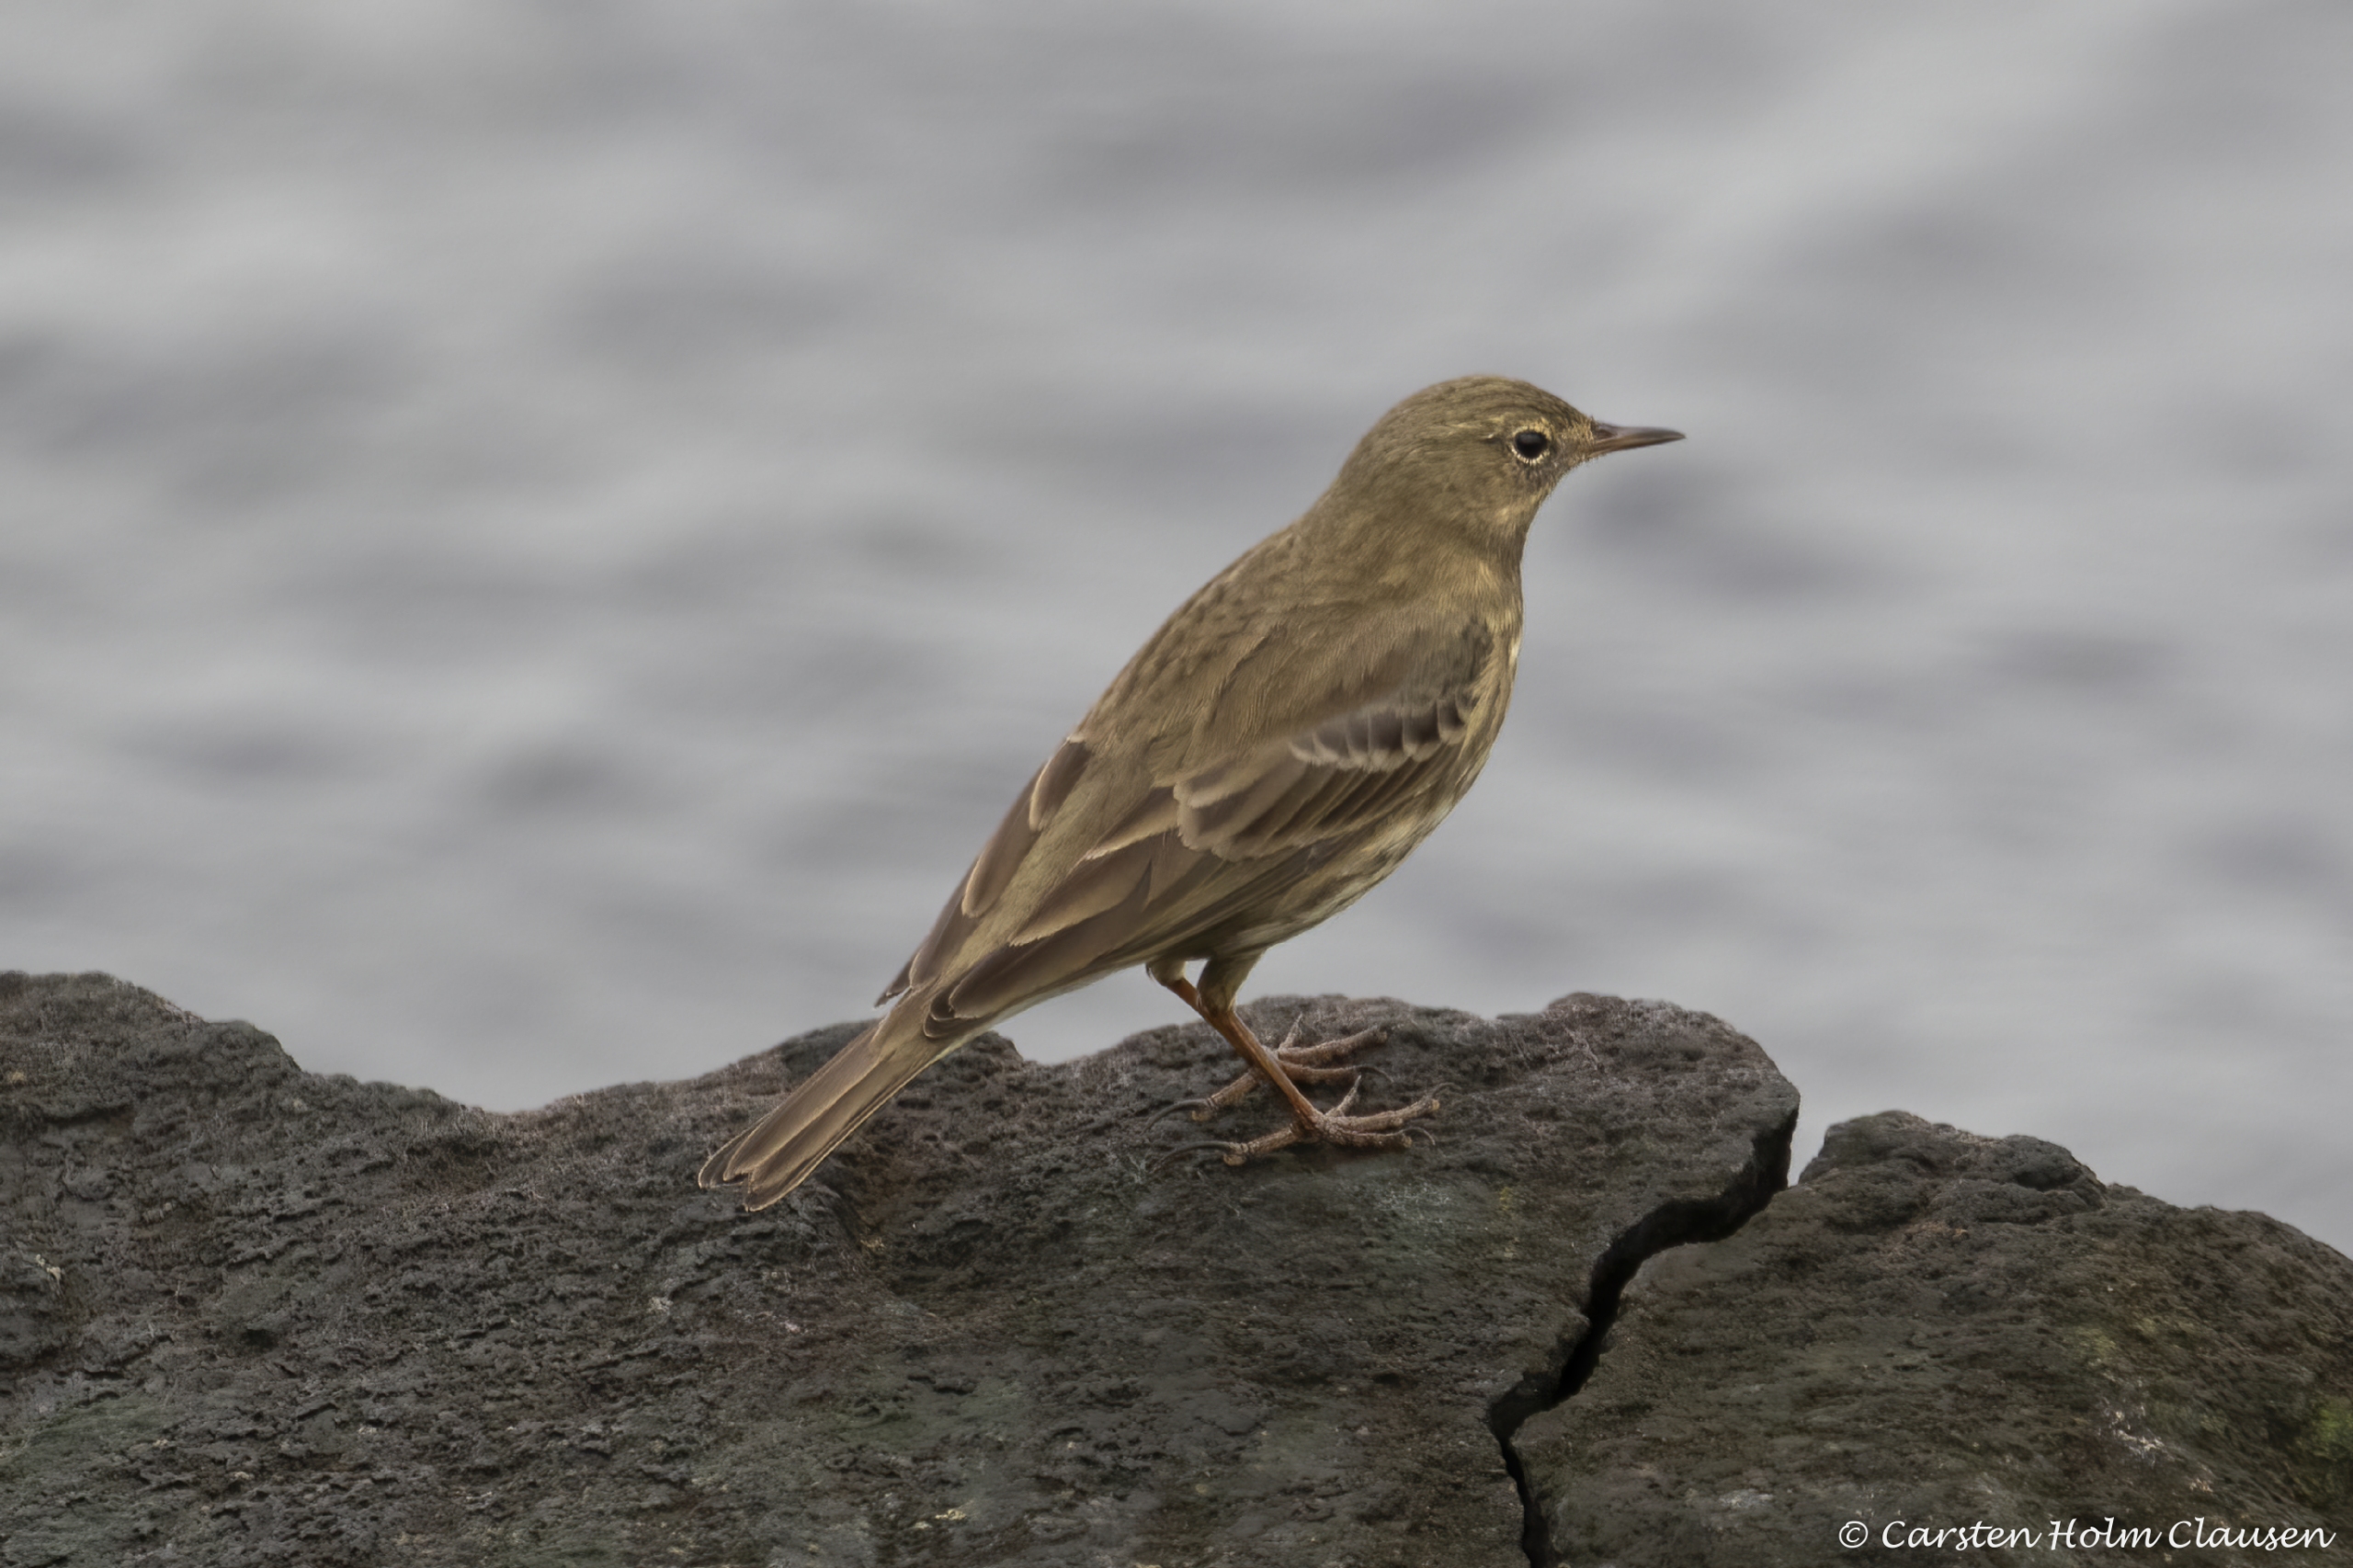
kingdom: Animalia
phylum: Chordata
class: Aves
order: Passeriformes
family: Motacillidae
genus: Anthus
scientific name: Anthus petrosus
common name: Skærpiber
